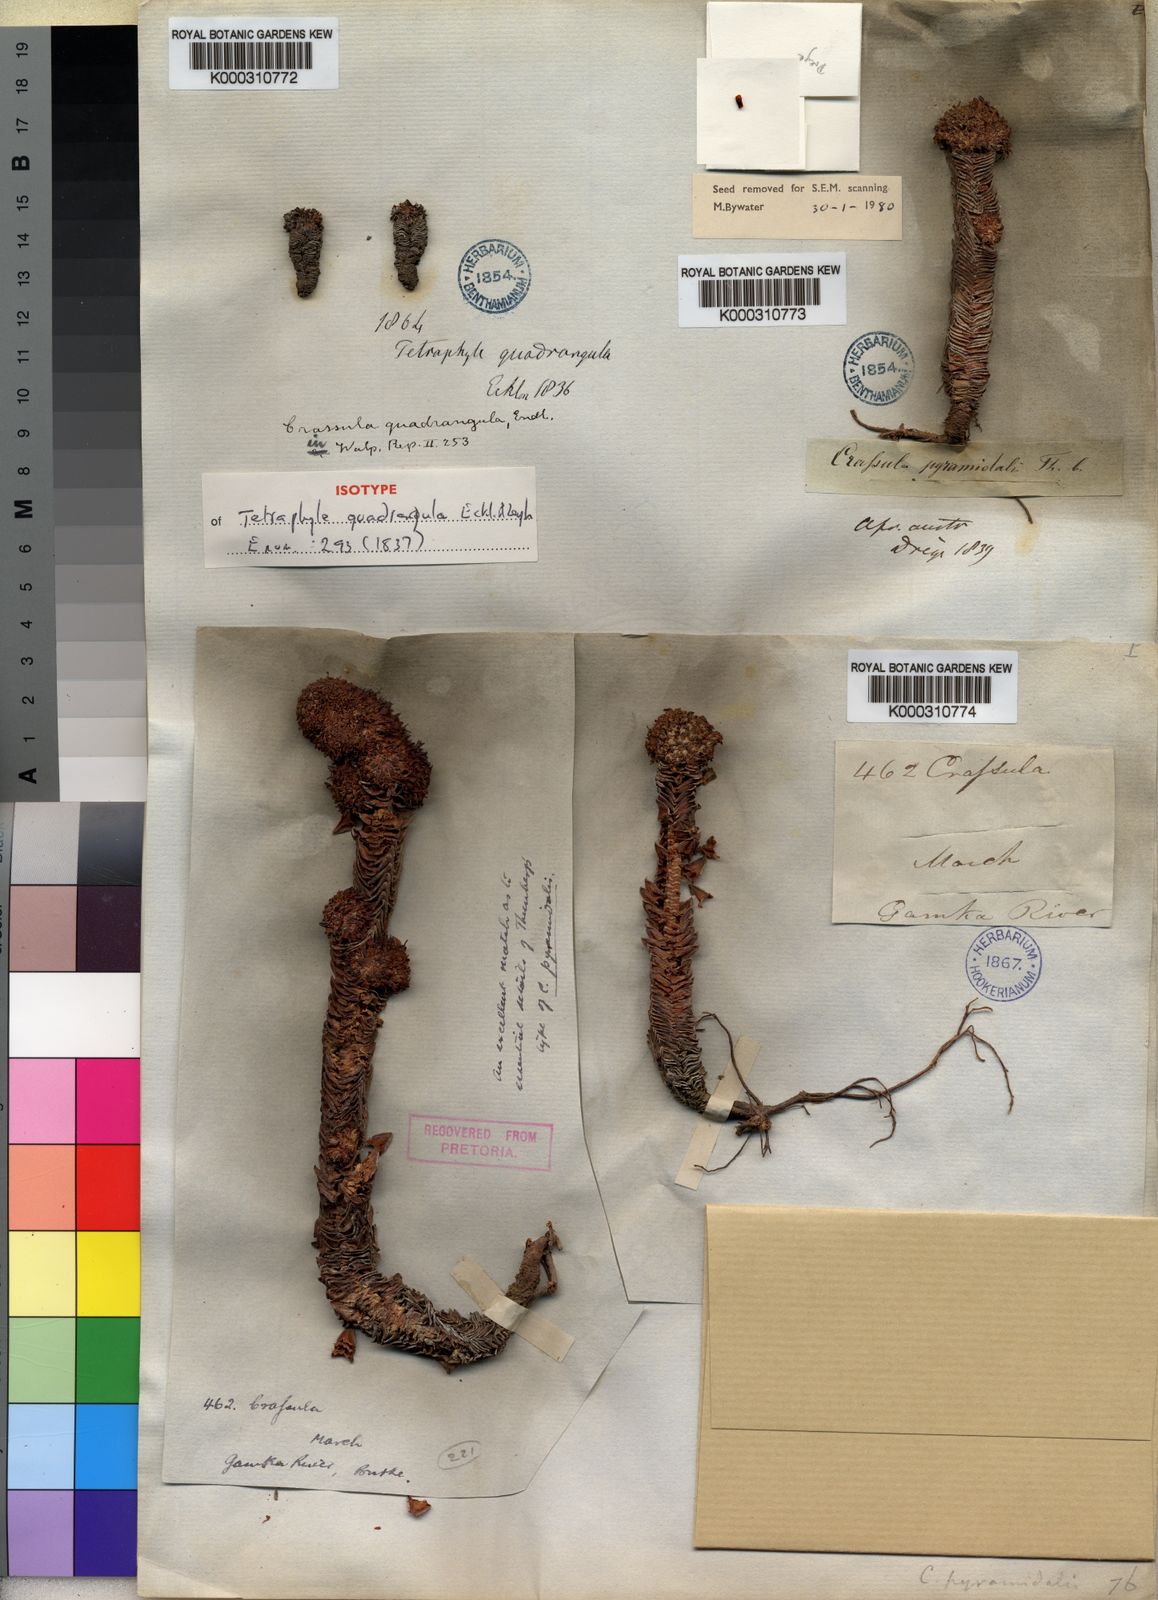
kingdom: Plantae
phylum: Tracheophyta
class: Magnoliopsida
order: Saxifragales
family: Crassulaceae
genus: Crassula
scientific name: Crassula pyramidalis
